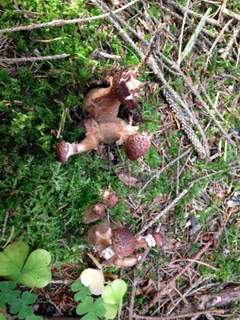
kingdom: Fungi
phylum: Basidiomycota
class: Agaricomycetes
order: Agaricales
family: Physalacriaceae
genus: Armillaria
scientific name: Armillaria ostoyae
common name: mørk honningsvamp
